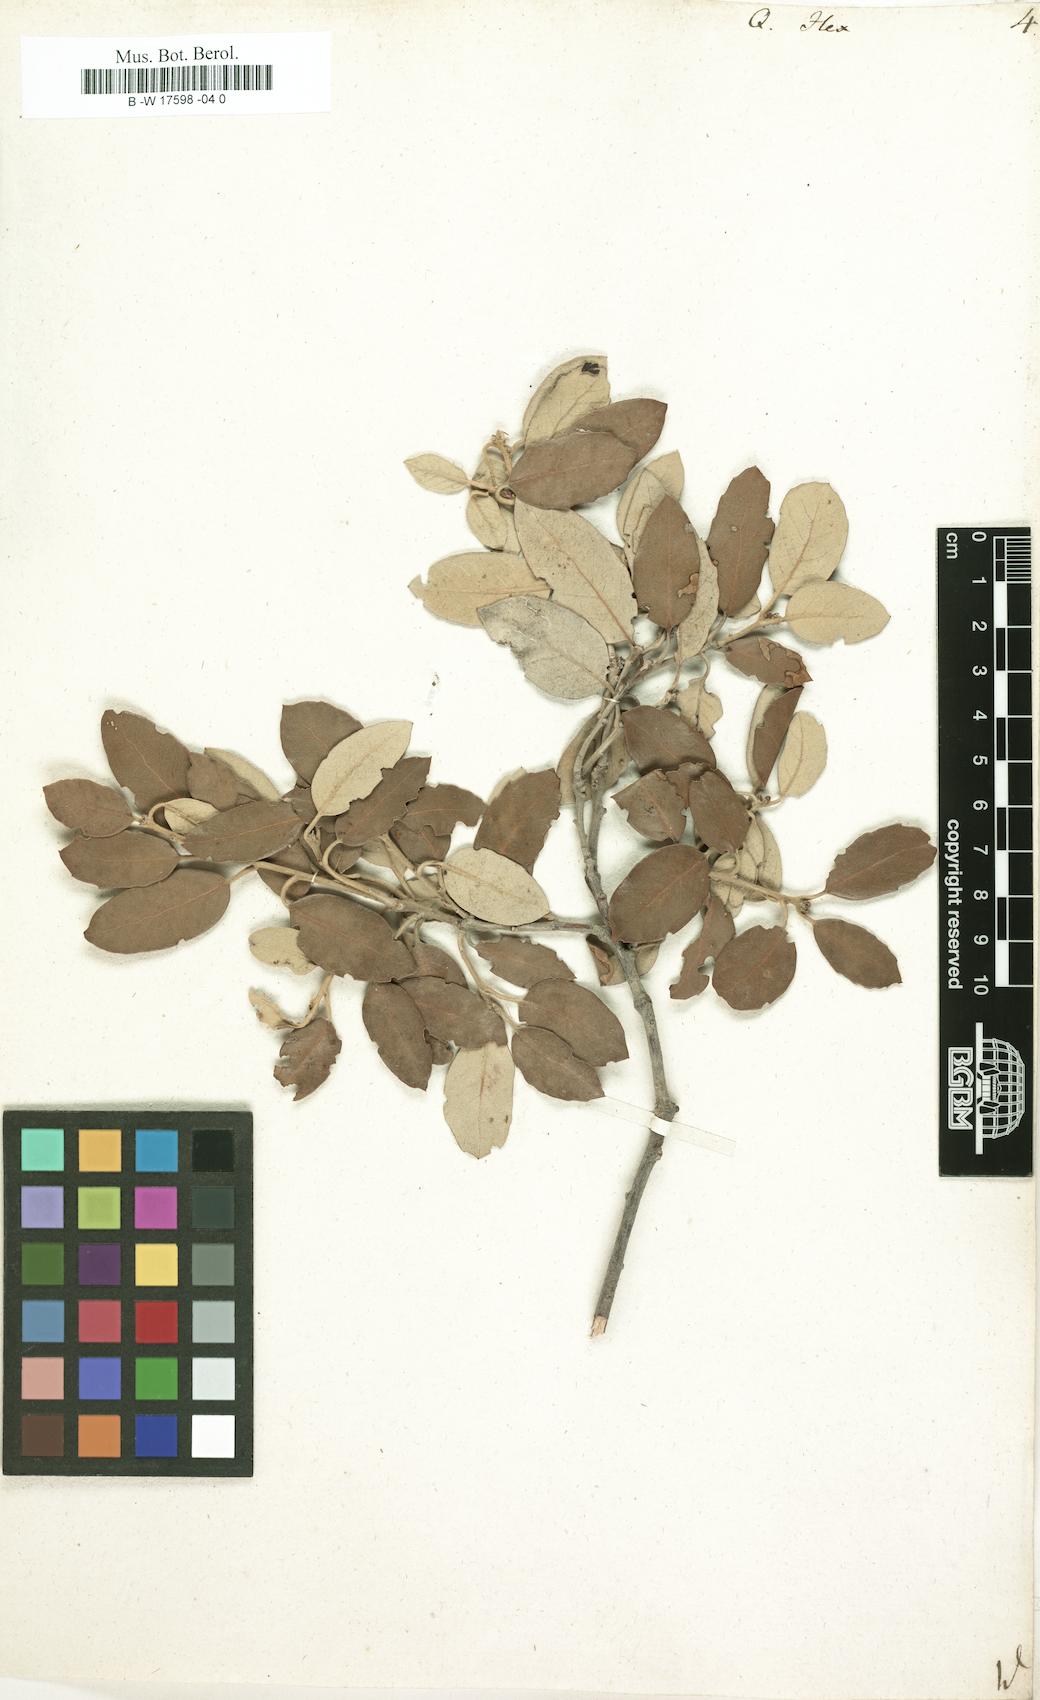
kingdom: Plantae
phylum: Tracheophyta
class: Magnoliopsida
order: Fagales
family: Fagaceae
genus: Quercus
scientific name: Quercus ilex
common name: Evergreen oak
